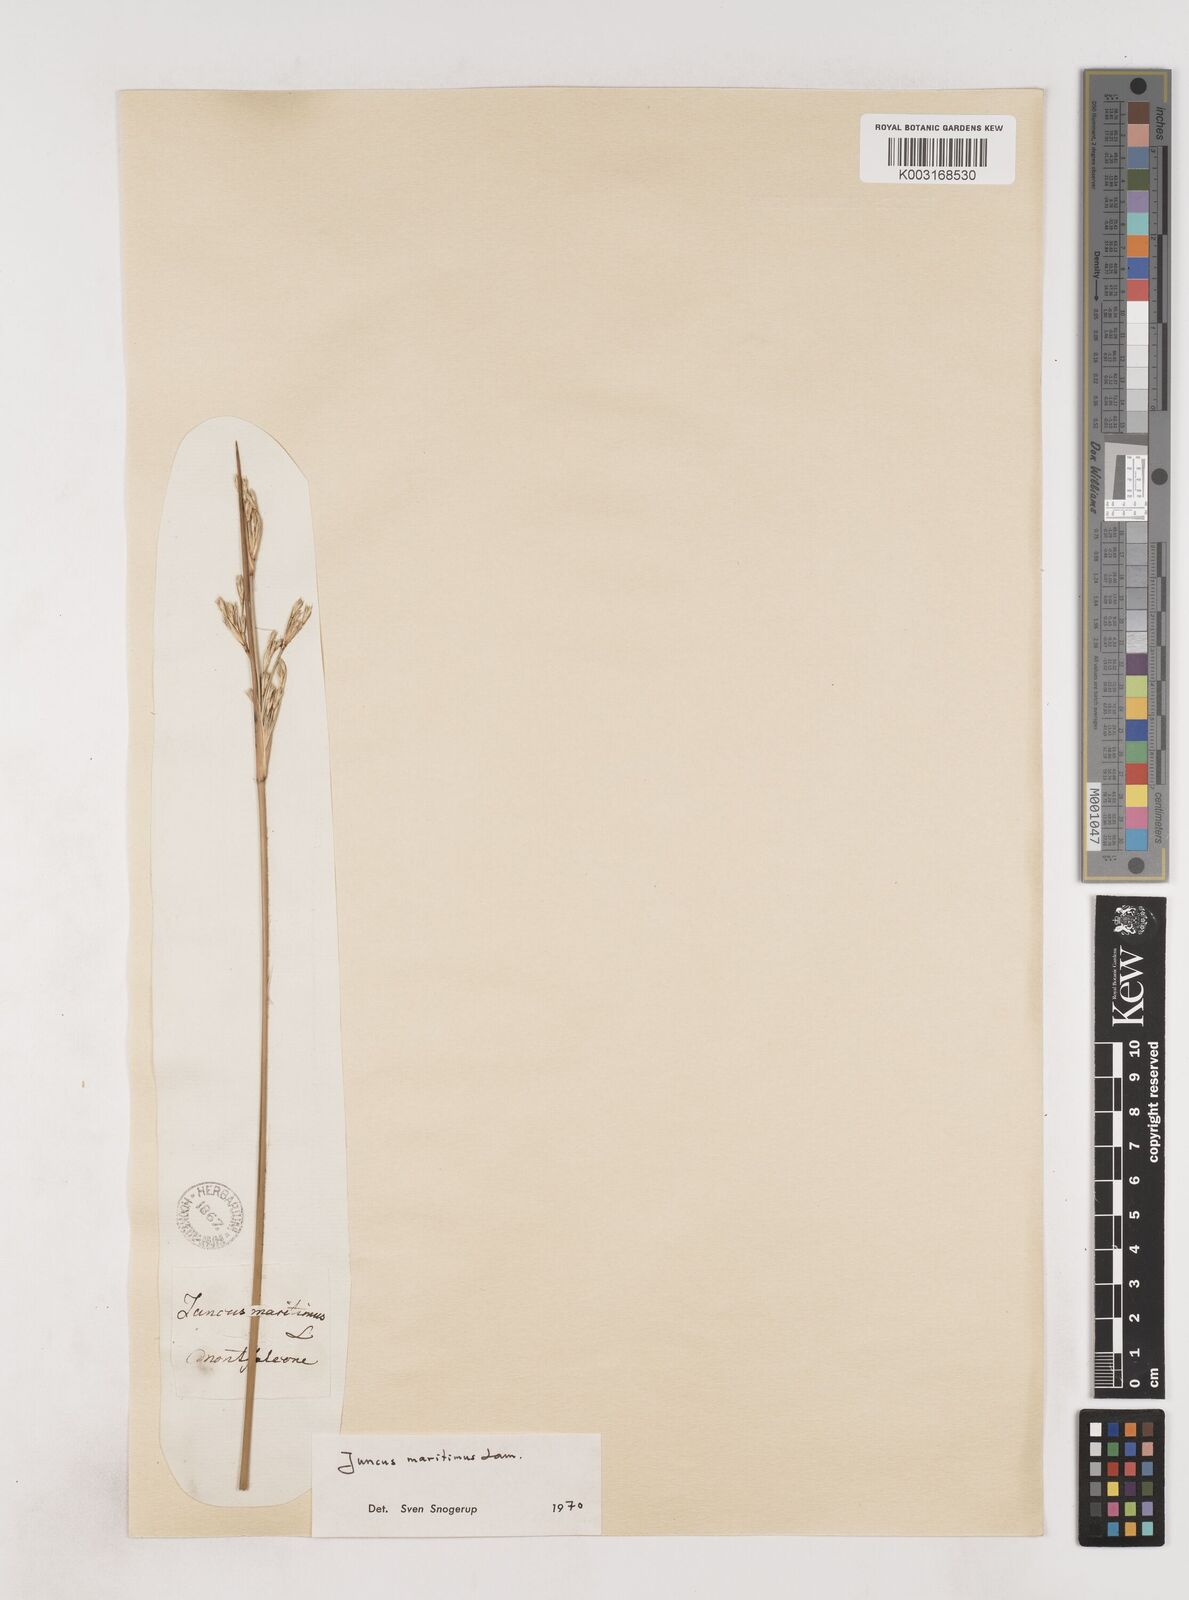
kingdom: Plantae
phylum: Tracheophyta
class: Liliopsida
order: Poales
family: Juncaceae
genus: Juncus
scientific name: Juncus maritimus
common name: Sea rush
